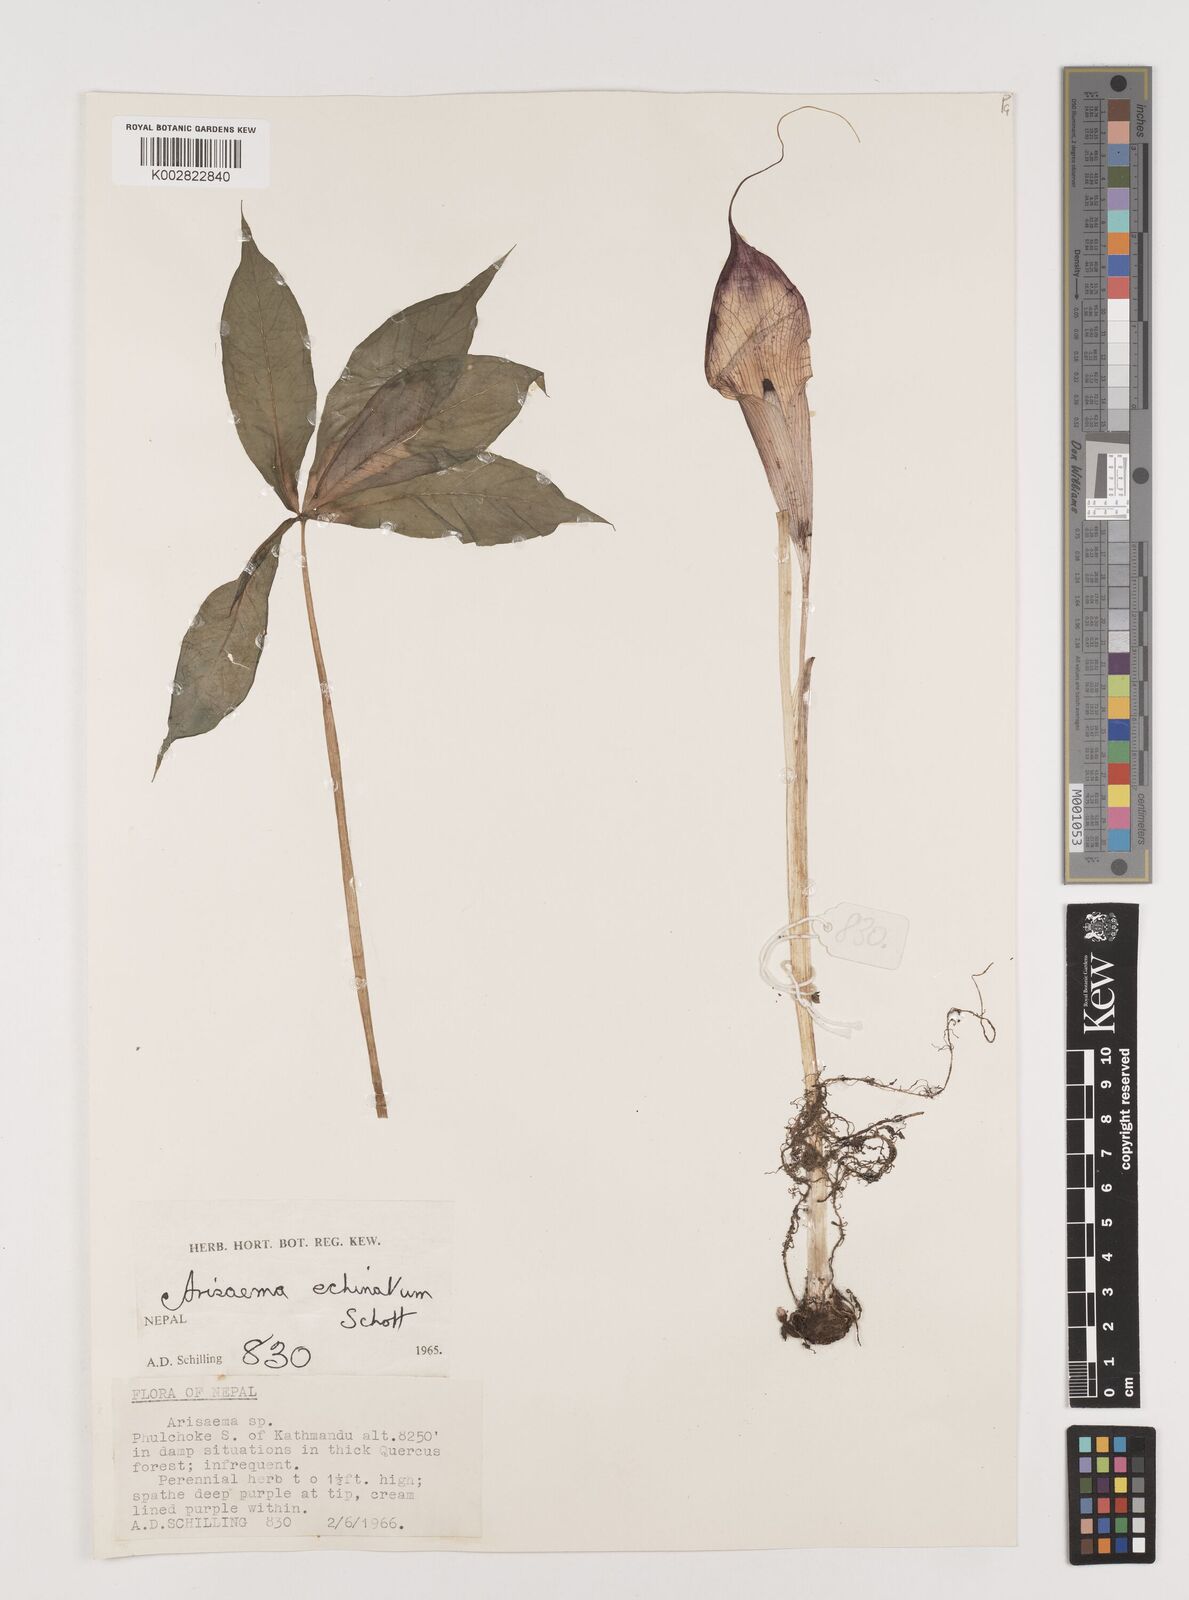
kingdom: Plantae
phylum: Tracheophyta
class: Liliopsida
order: Alismatales
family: Araceae
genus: Arisaema
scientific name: Arisaema echinatum
